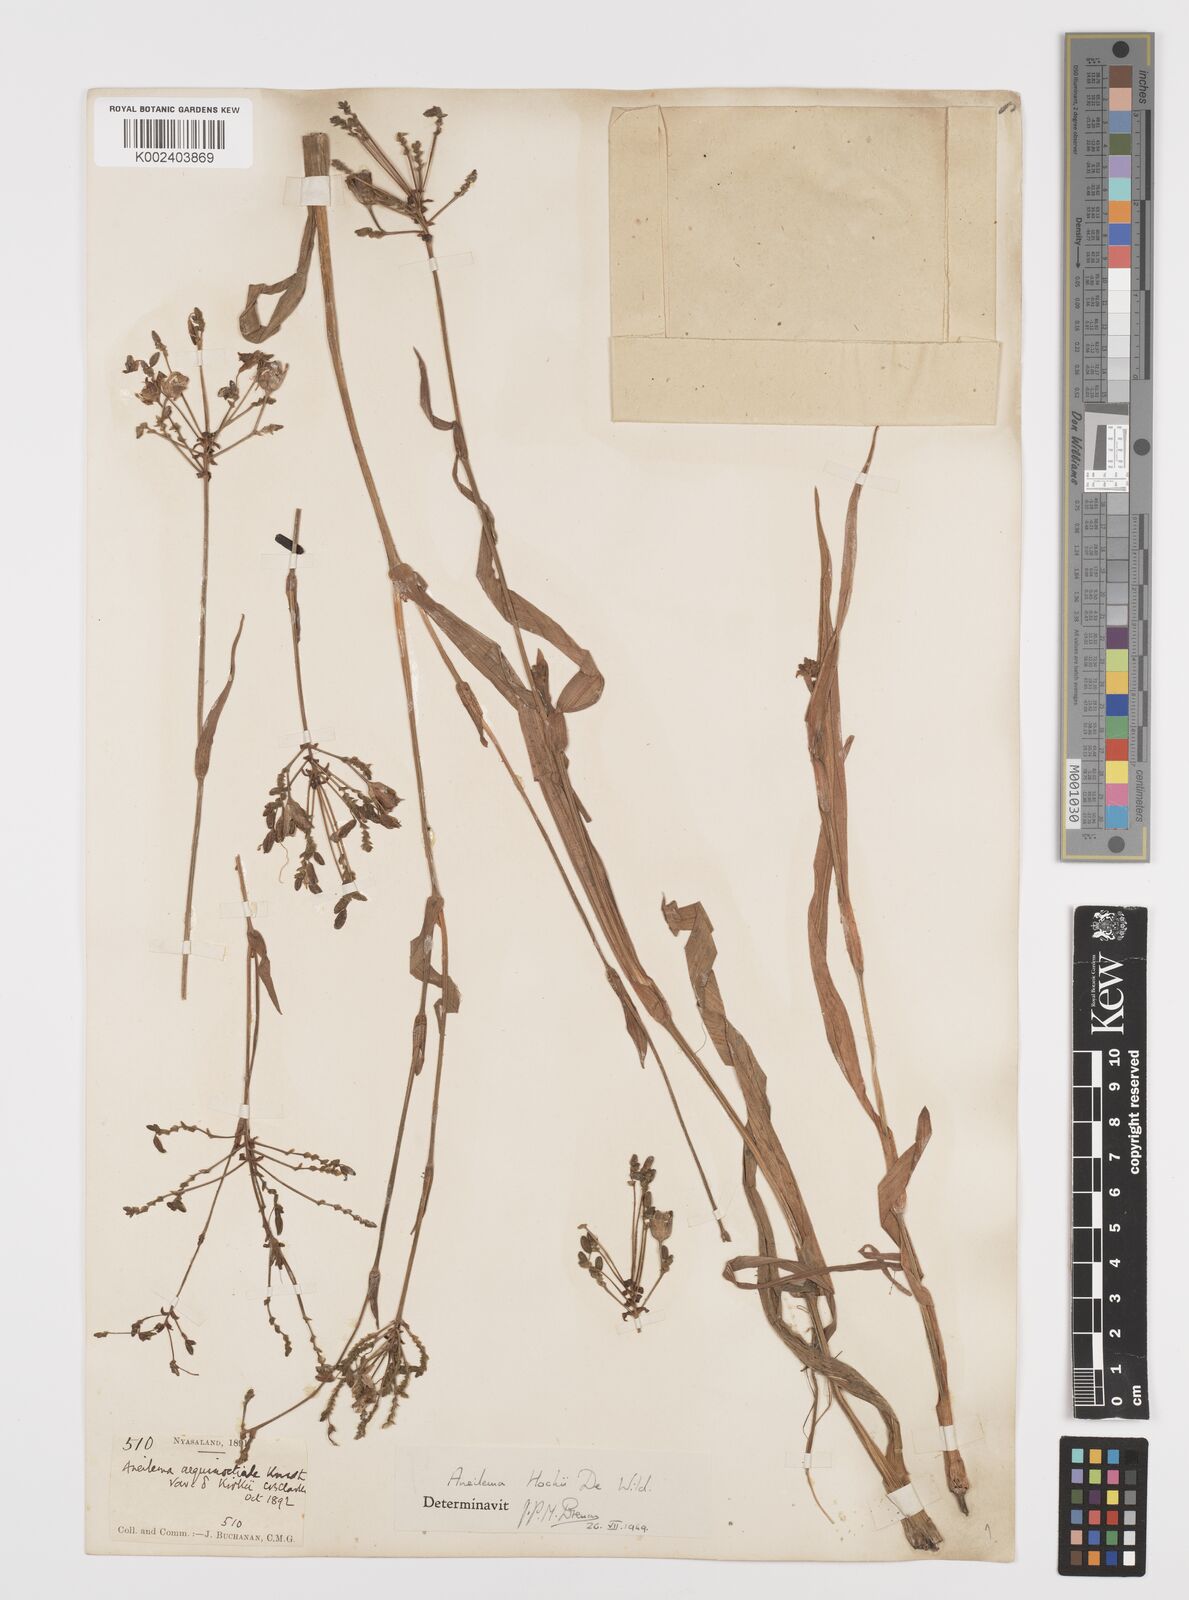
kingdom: Plantae
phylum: Tracheophyta
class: Liliopsida
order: Commelinales
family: Commelinaceae
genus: Aneilema
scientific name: Aneilema hockii
